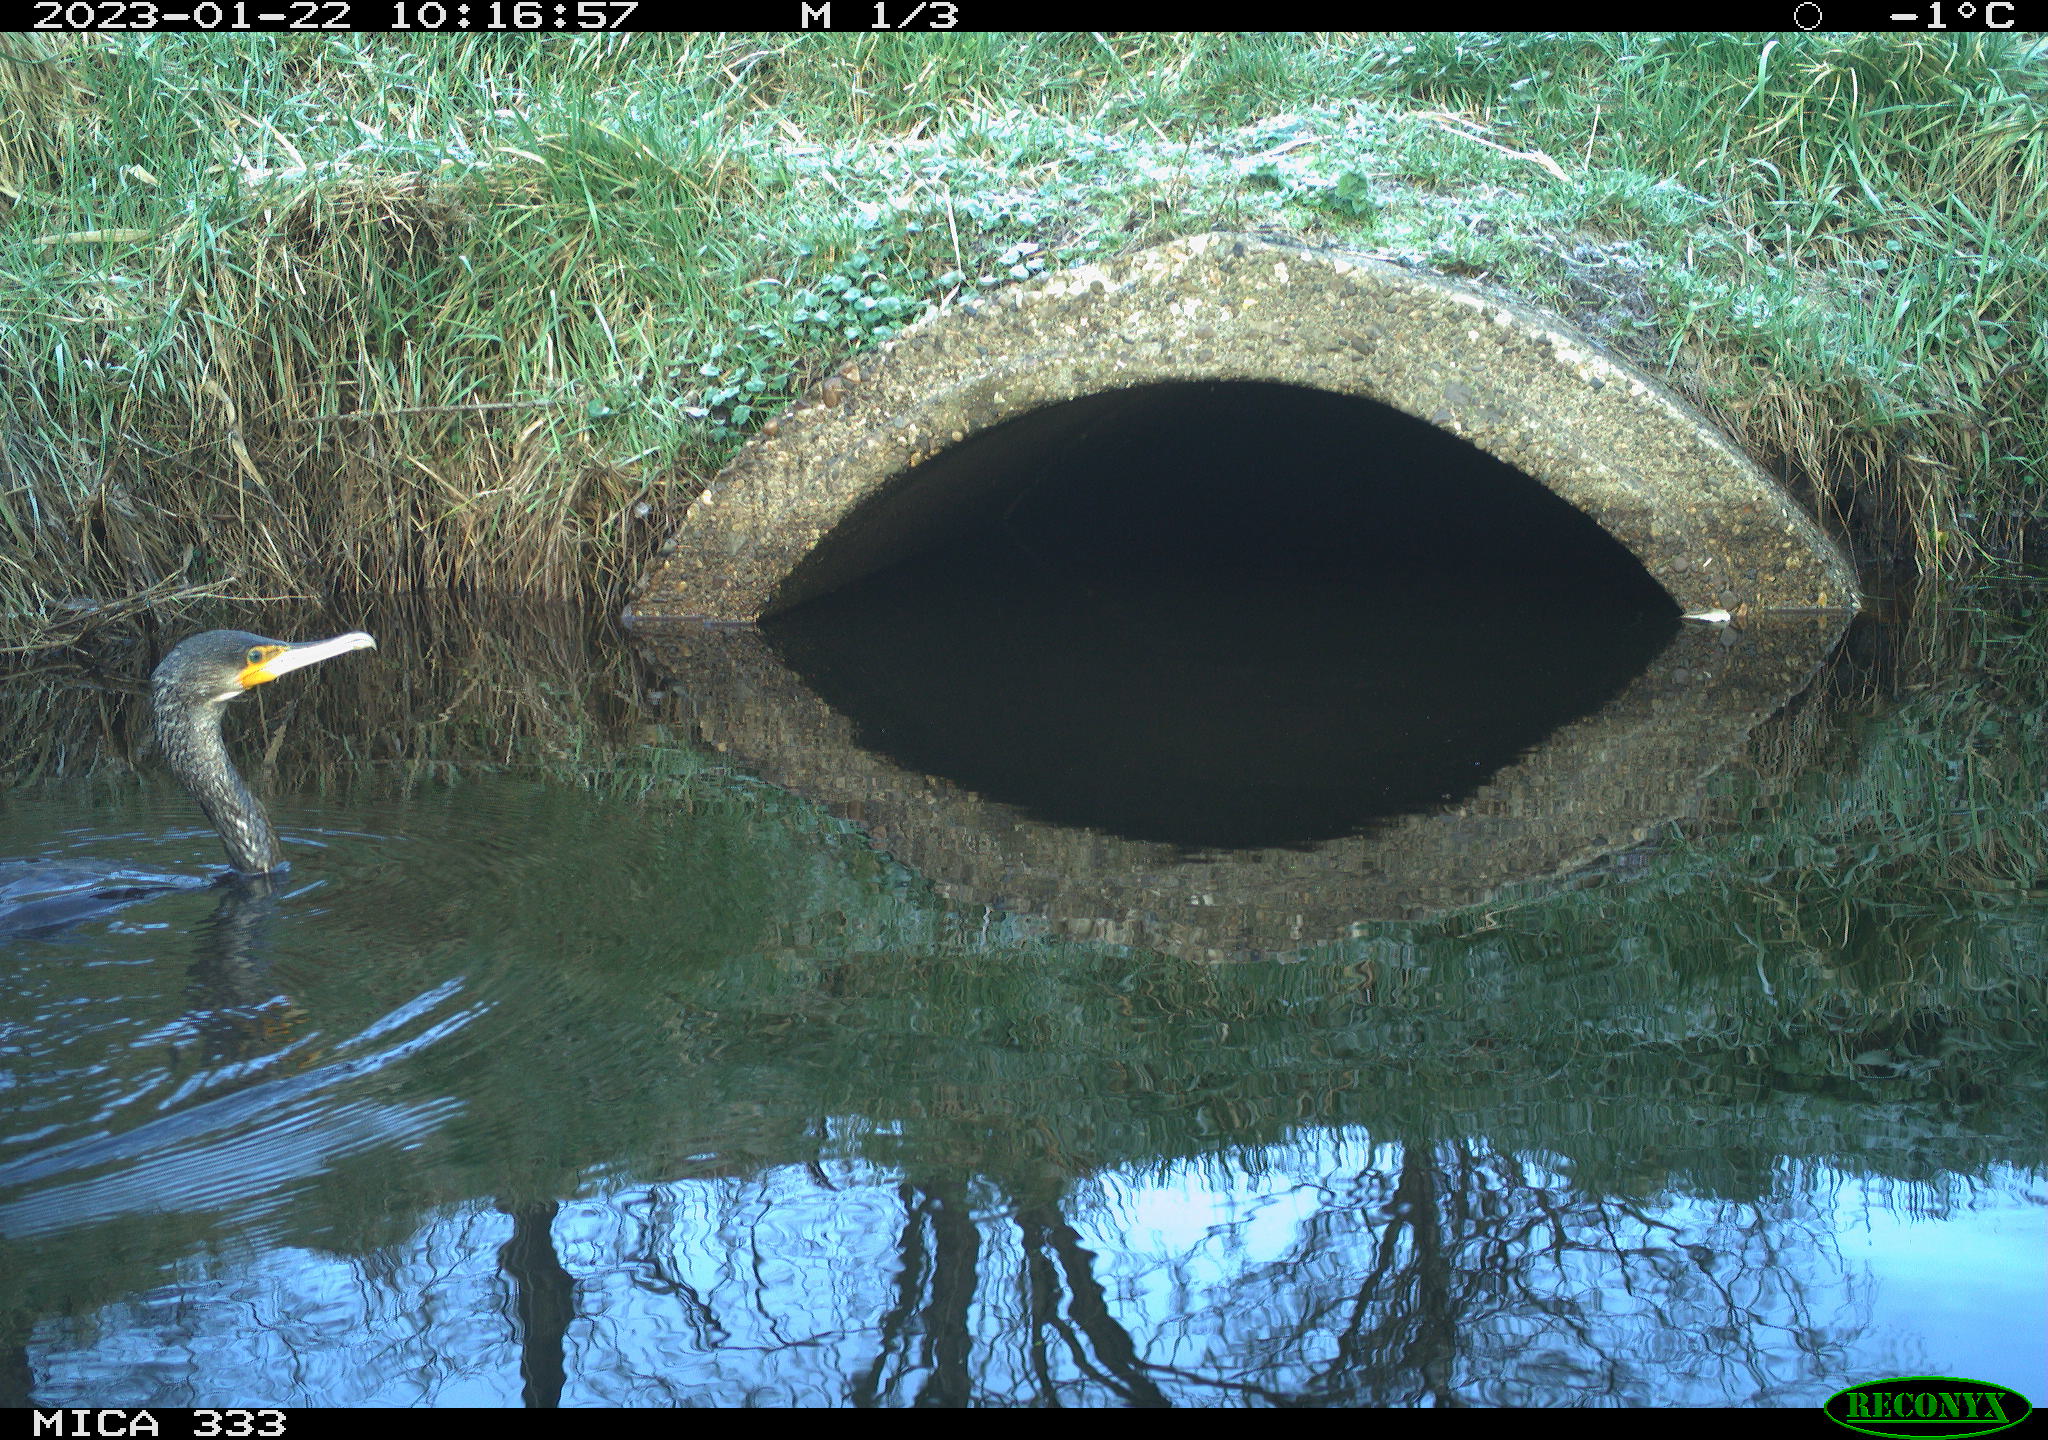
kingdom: Animalia
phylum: Chordata
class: Aves
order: Suliformes
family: Phalacrocoracidae
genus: Phalacrocorax
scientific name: Phalacrocorax carbo
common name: Great cormorant
